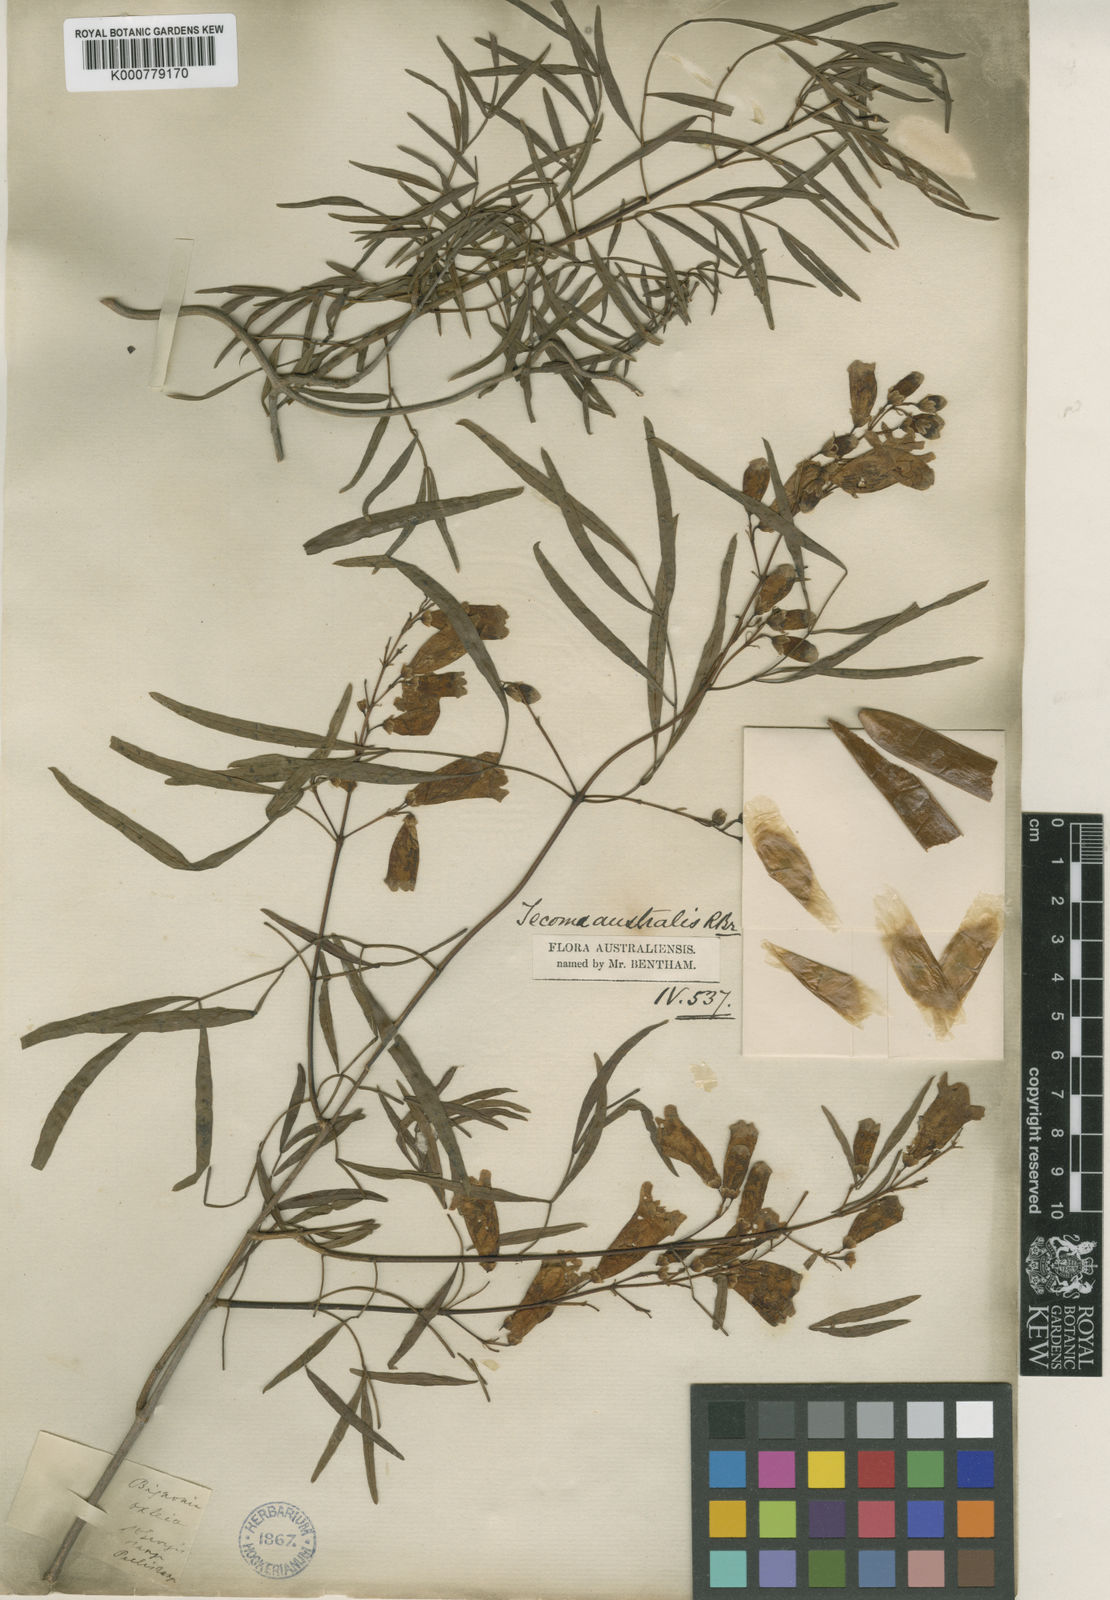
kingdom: Plantae
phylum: Tracheophyta
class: Magnoliopsida
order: Lamiales
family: Bignoniaceae
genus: Pandorea
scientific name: Pandorea pandorana
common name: Wonga-wonga-vine
